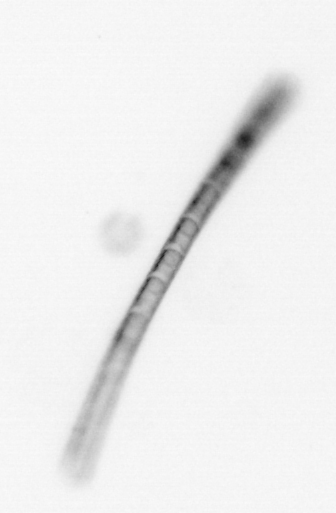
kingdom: Chromista
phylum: Ochrophyta
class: Bacillariophyceae
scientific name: Bacillariophyceae
